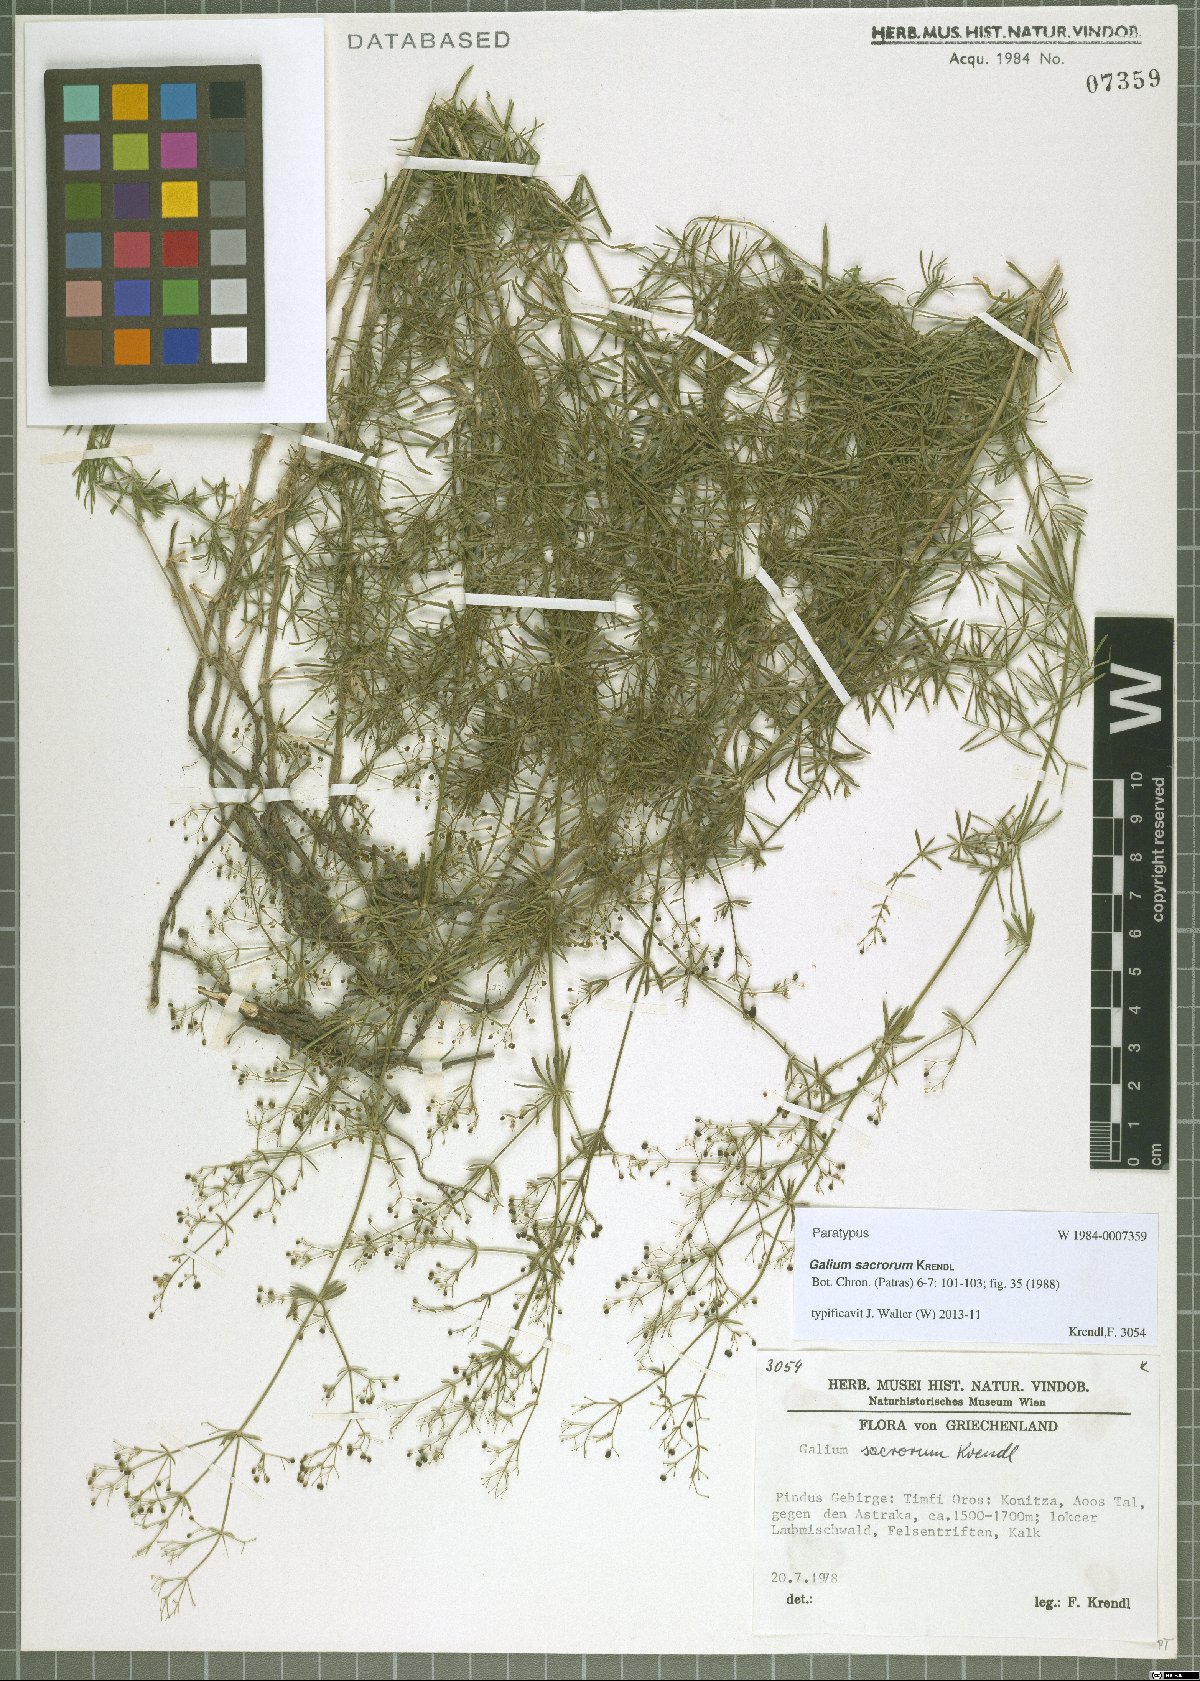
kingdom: Plantae
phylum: Tracheophyta
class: Magnoliopsida
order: Gentianales
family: Rubiaceae
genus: Galium
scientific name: Galium monasterium
